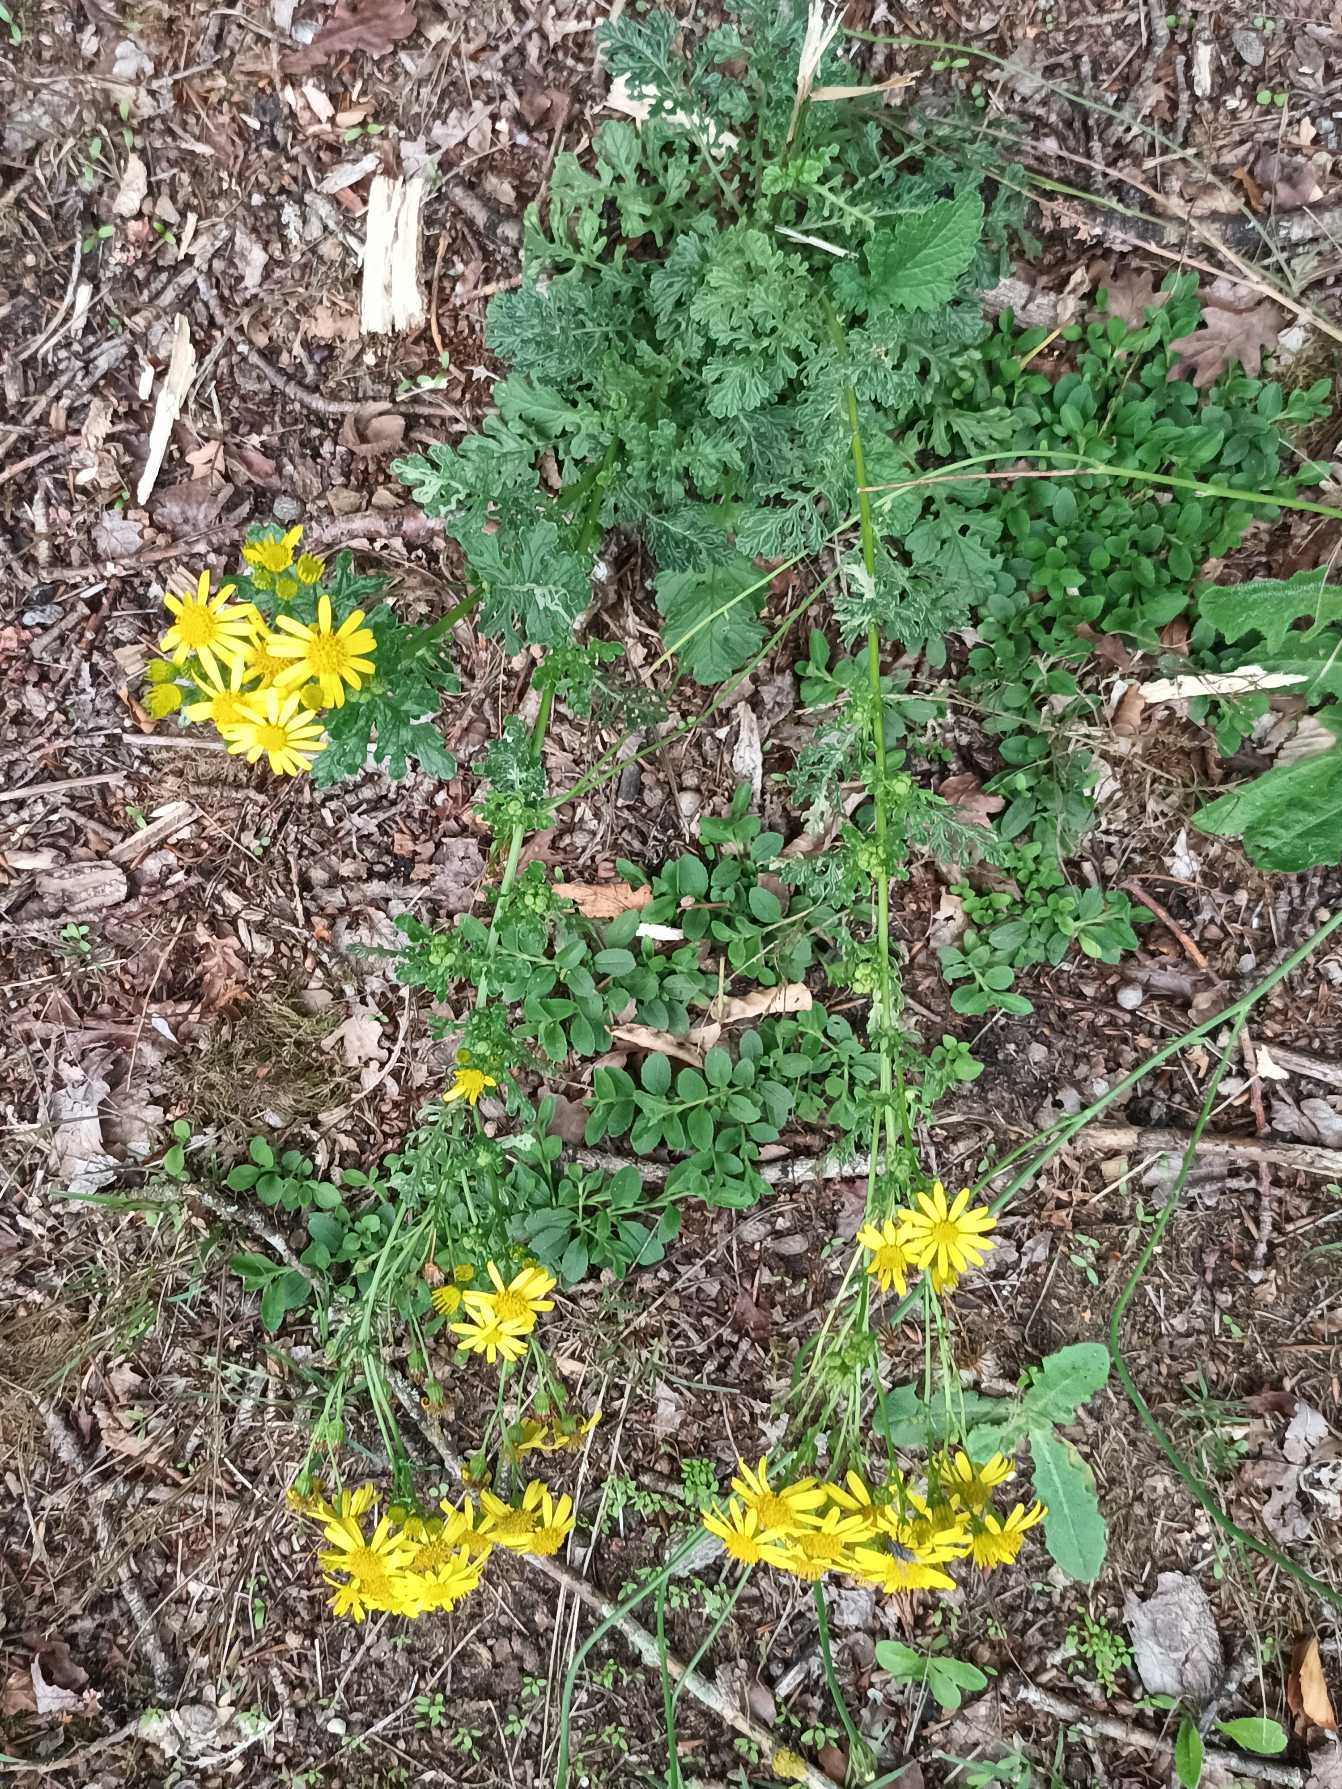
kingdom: Plantae
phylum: Tracheophyta
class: Magnoliopsida
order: Asterales
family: Asteraceae
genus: Jacobaea
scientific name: Jacobaea vulgaris
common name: Eng-brandbæger
